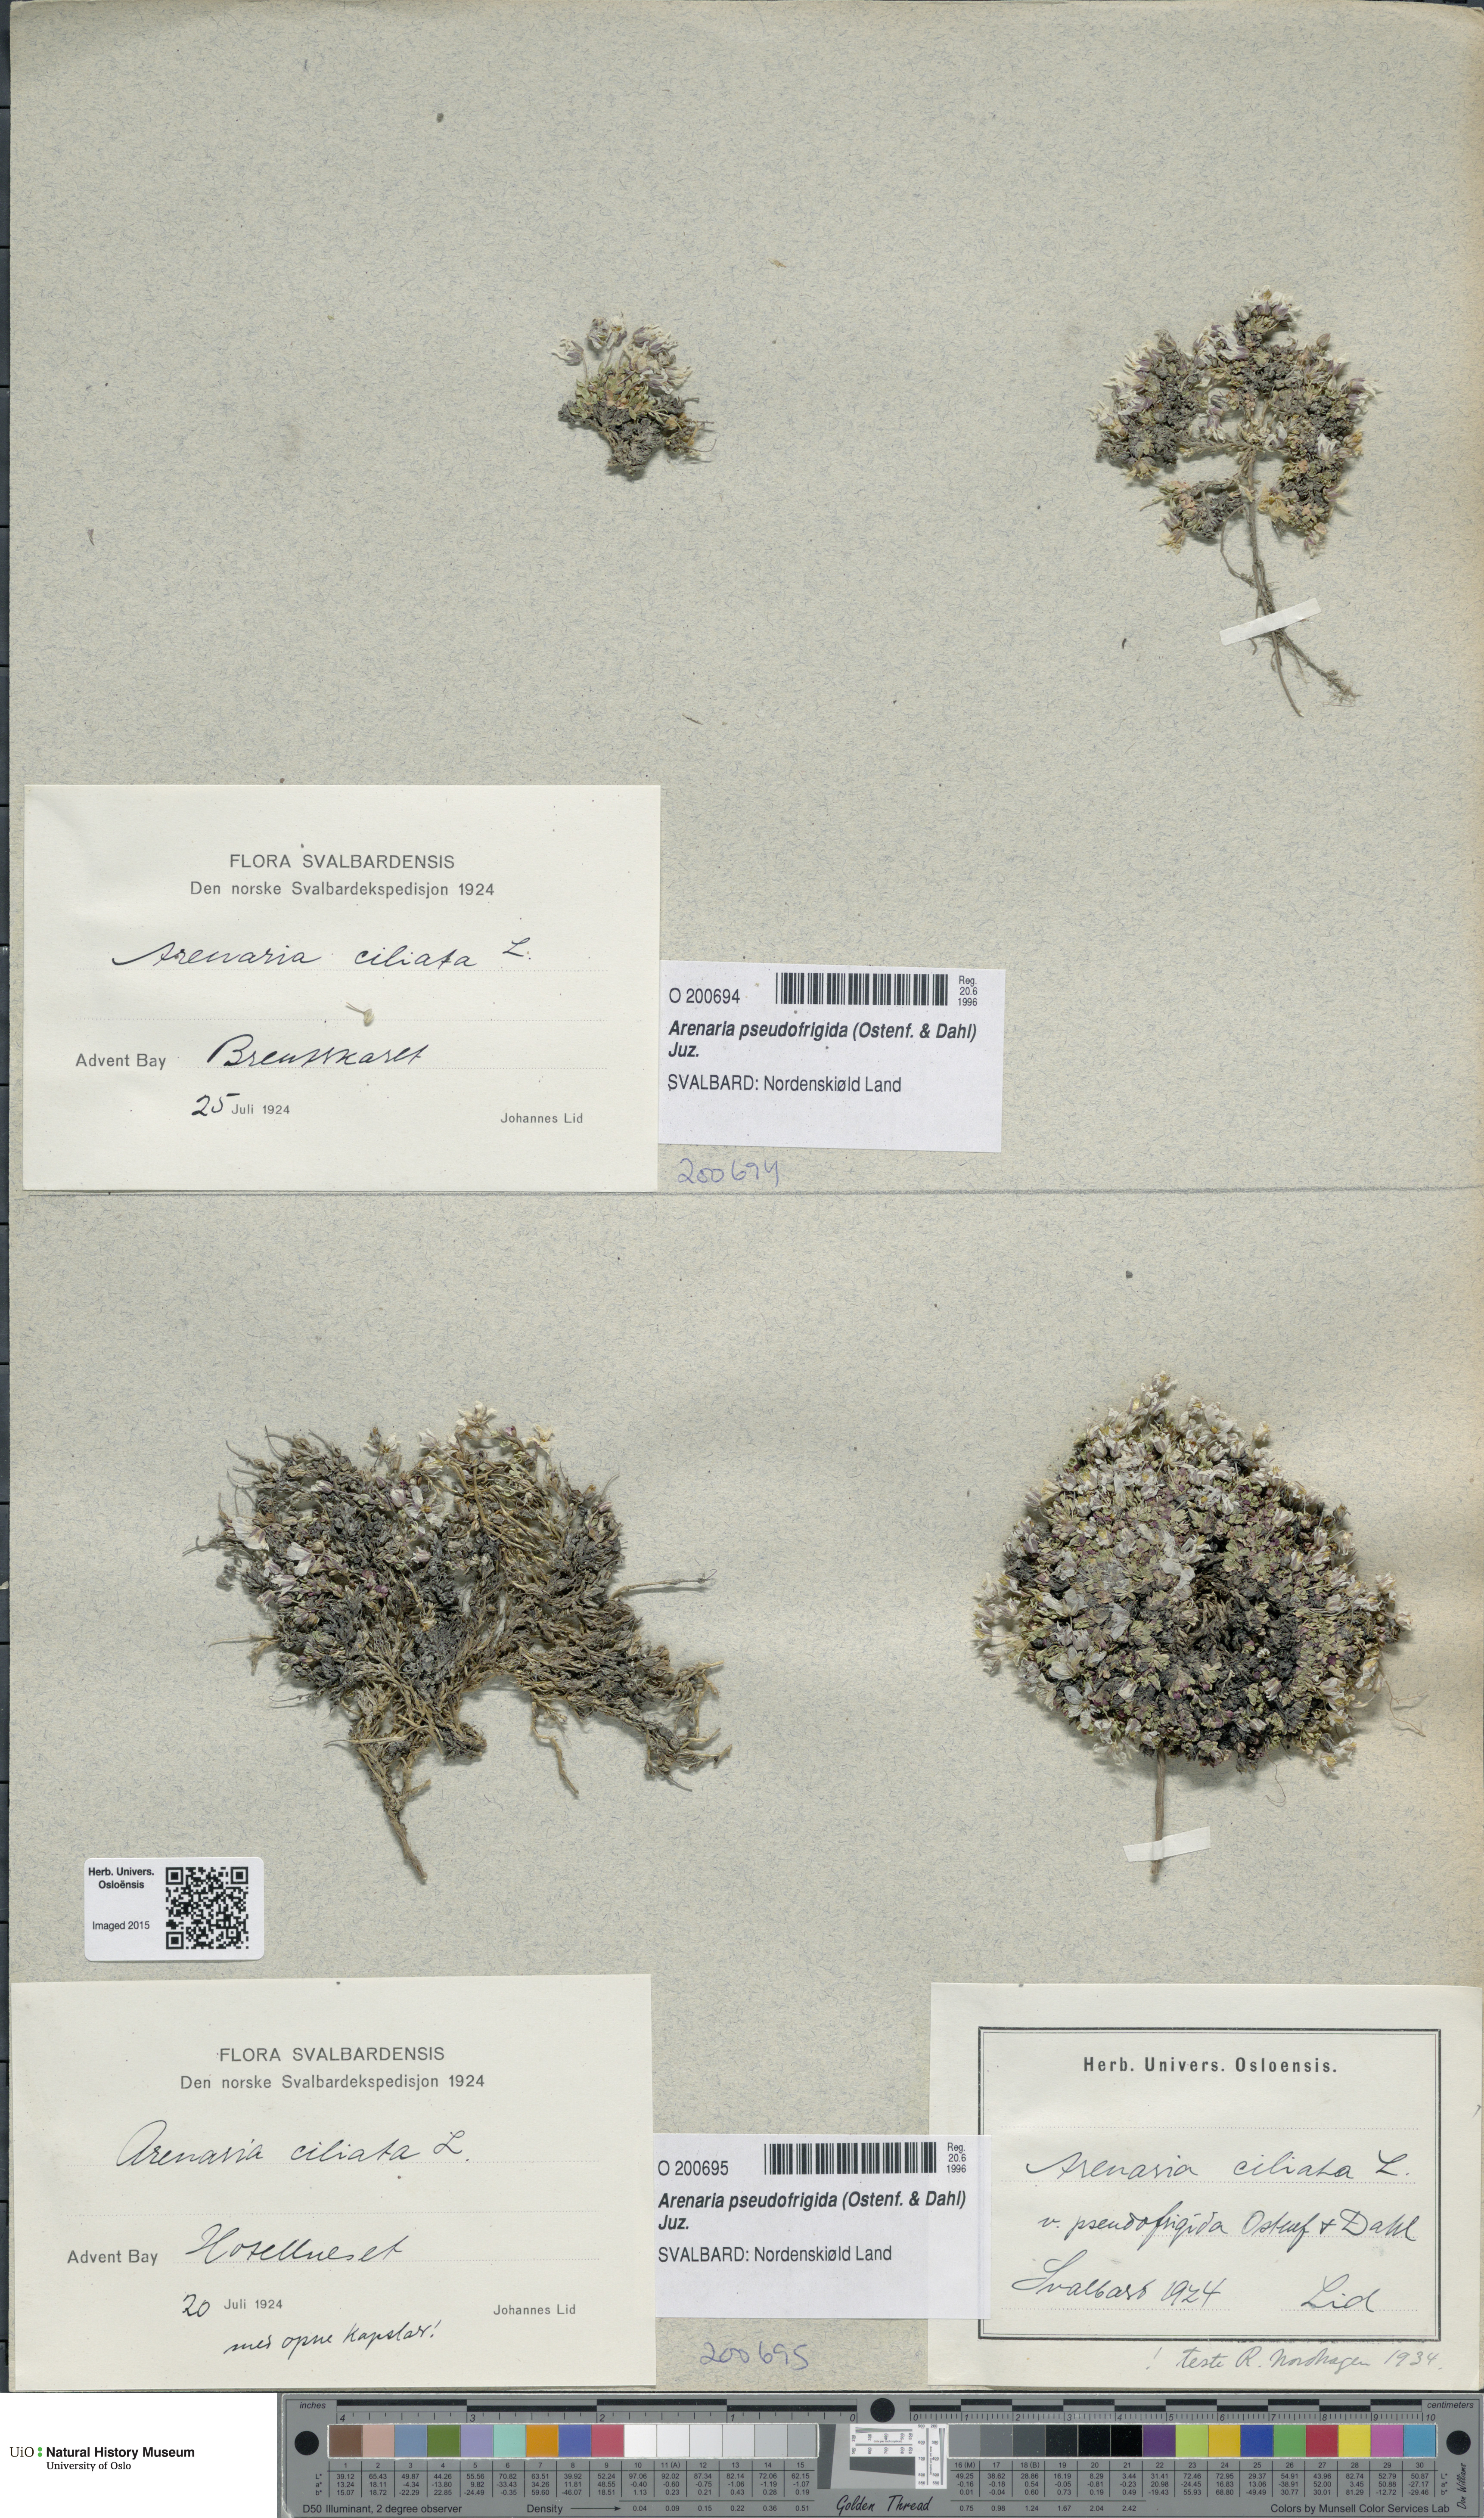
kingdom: Plantae
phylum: Tracheophyta
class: Magnoliopsida
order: Caryophyllales
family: Caryophyllaceae
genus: Arenaria
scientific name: Arenaria pseudofrigida
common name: Tundra sandwort
